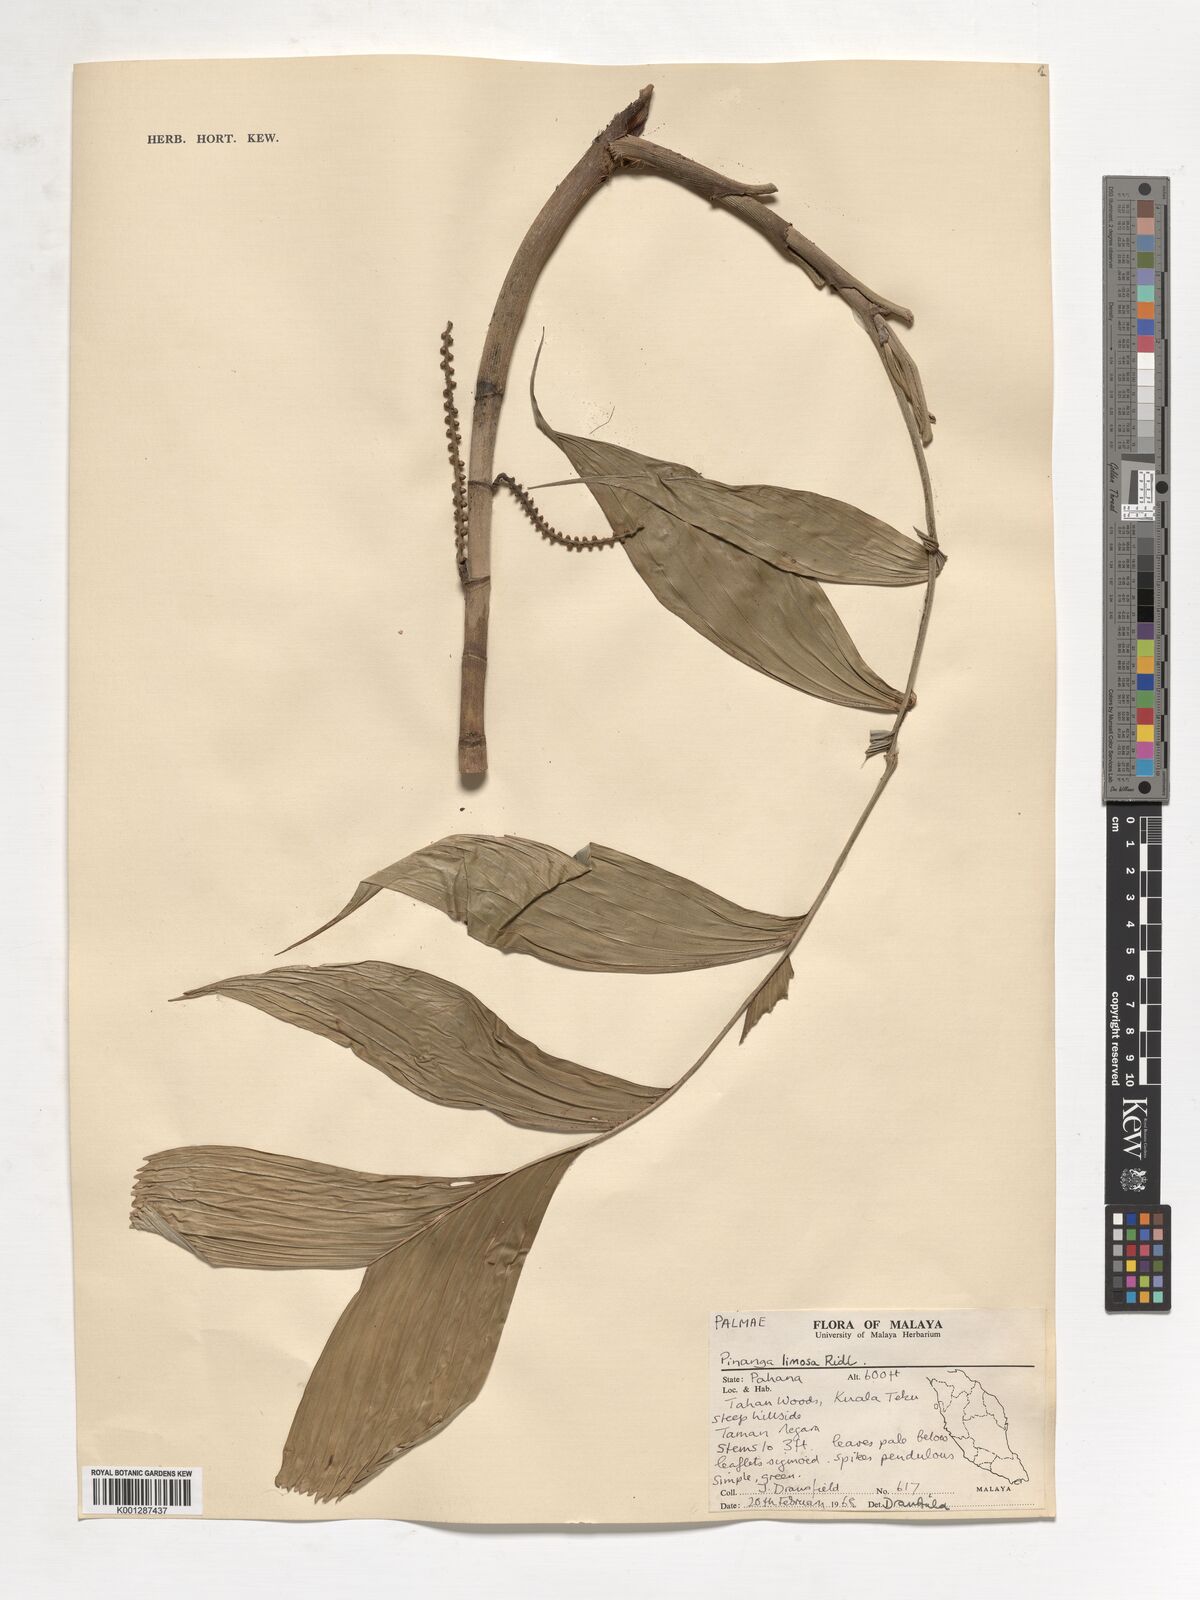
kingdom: Plantae
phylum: Tracheophyta
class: Liliopsida
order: Arecales
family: Arecaceae
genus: Pinanga
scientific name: Pinanga limosa
